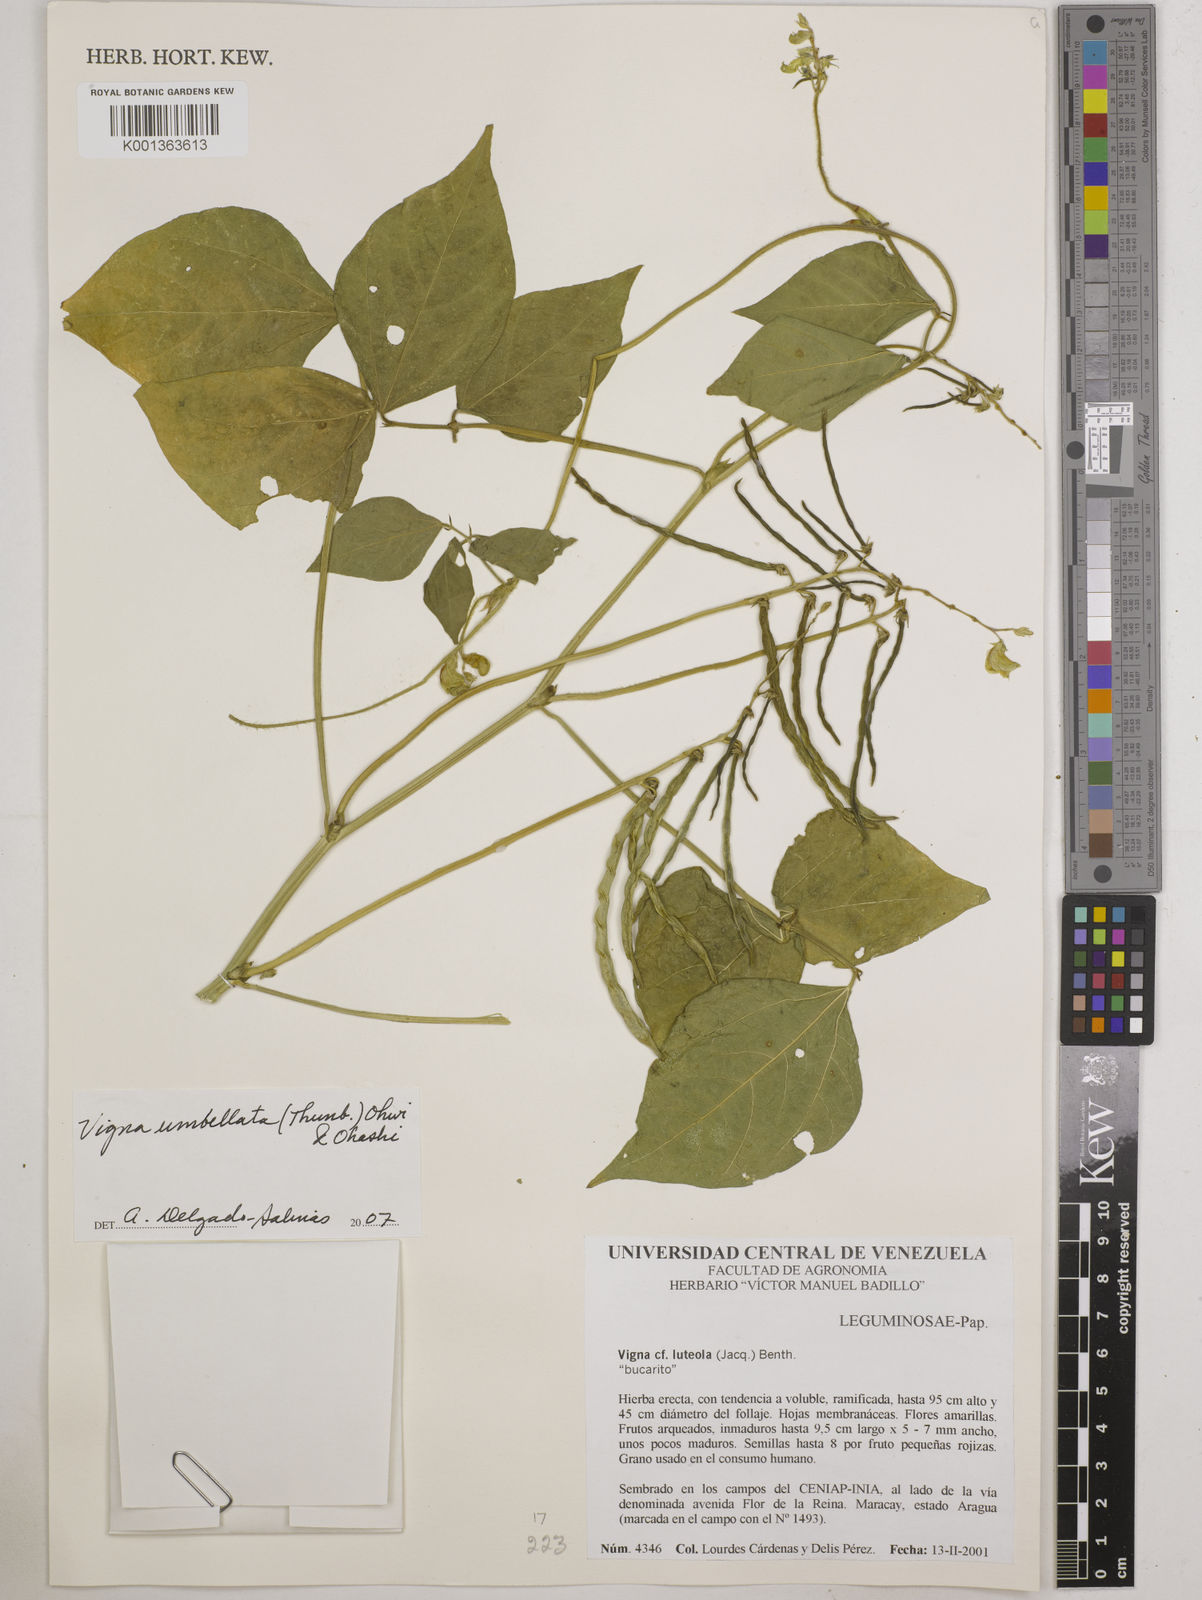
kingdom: Plantae
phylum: Tracheophyta
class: Magnoliopsida
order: Fabales
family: Fabaceae
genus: Vigna
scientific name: Vigna umbellata
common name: Oriental-bean
